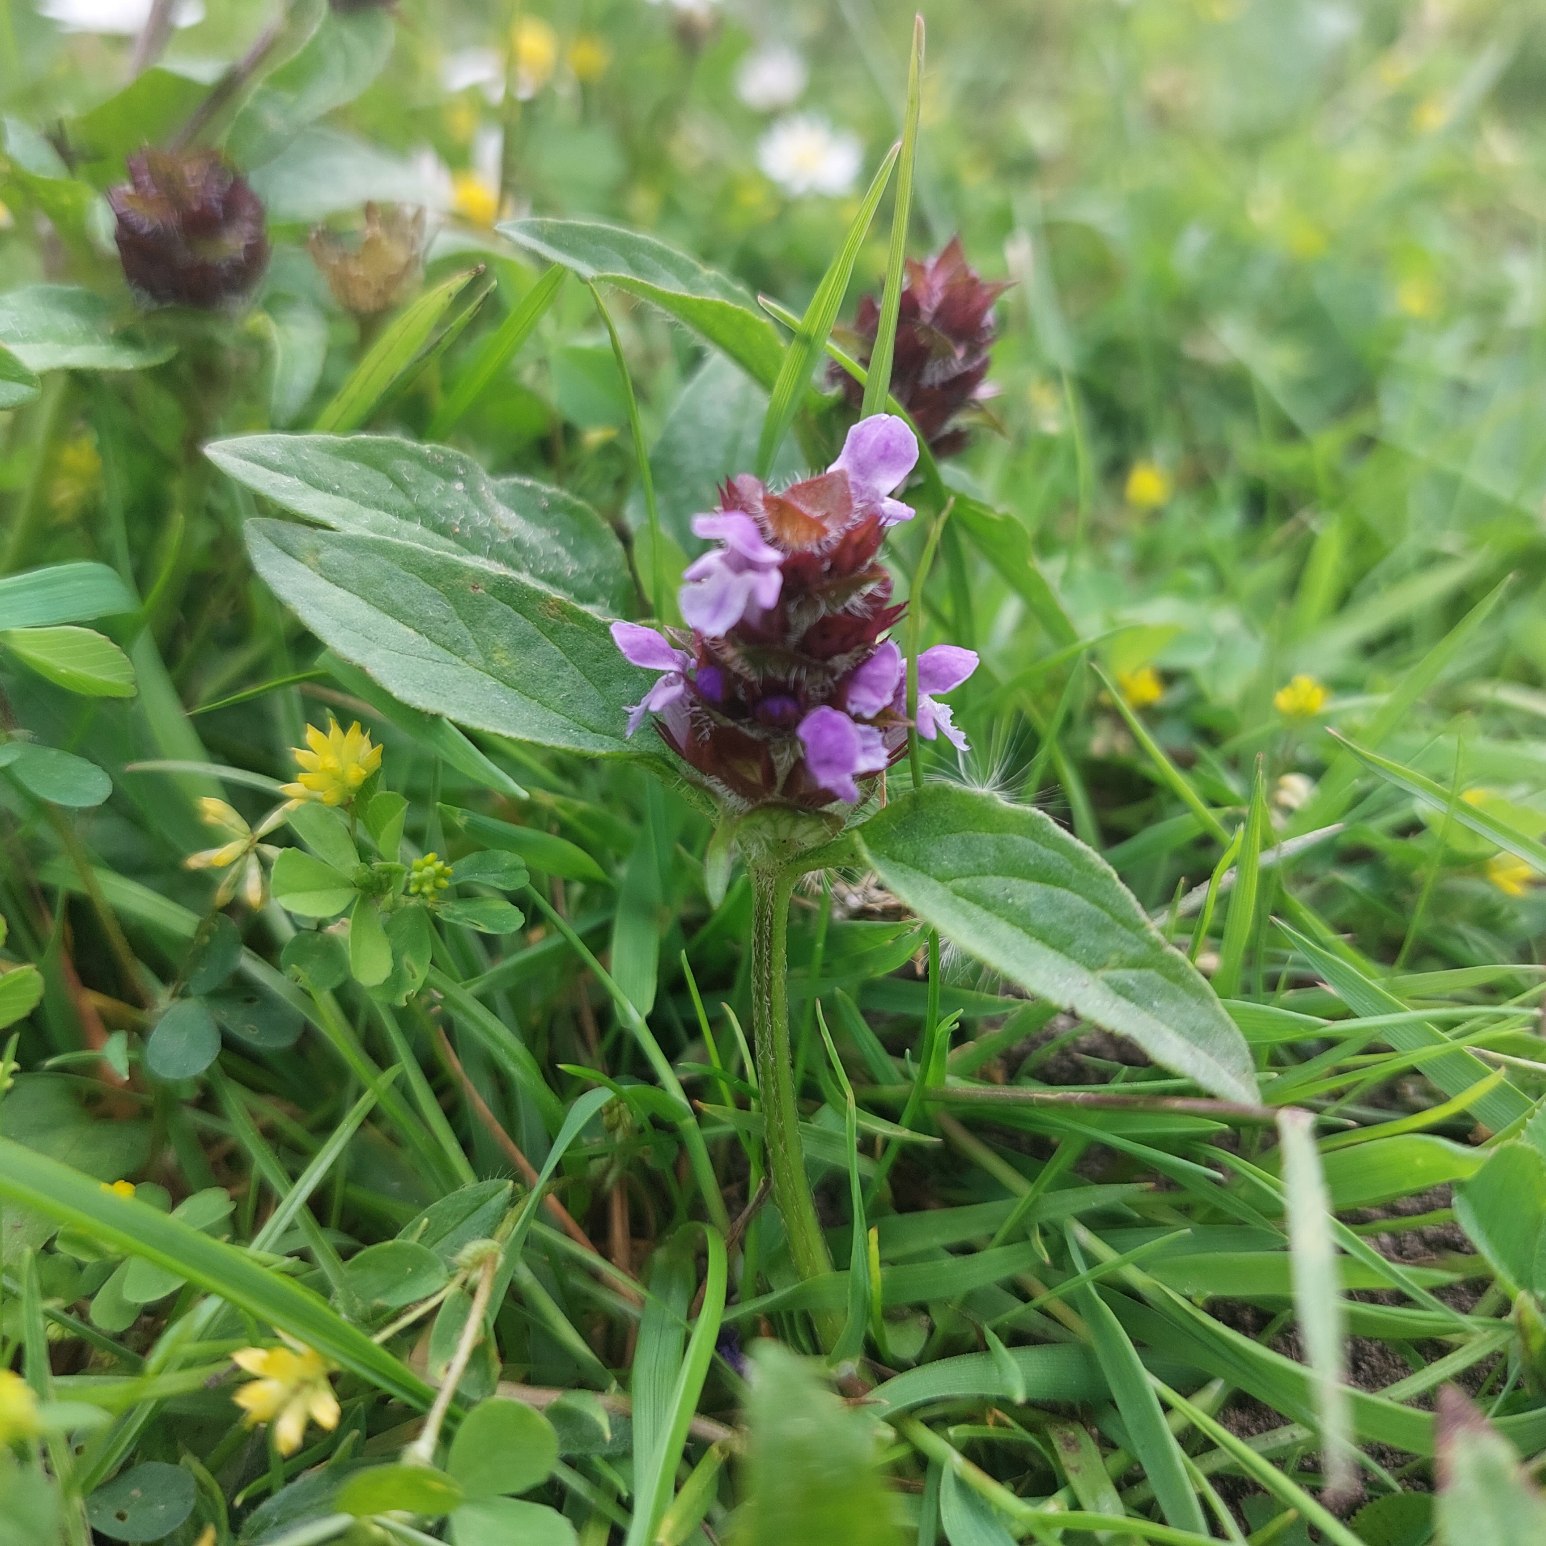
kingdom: Plantae
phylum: Tracheophyta
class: Magnoliopsida
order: Lamiales
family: Lamiaceae
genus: Prunella
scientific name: Prunella vulgaris
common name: Almindelig brunelle
